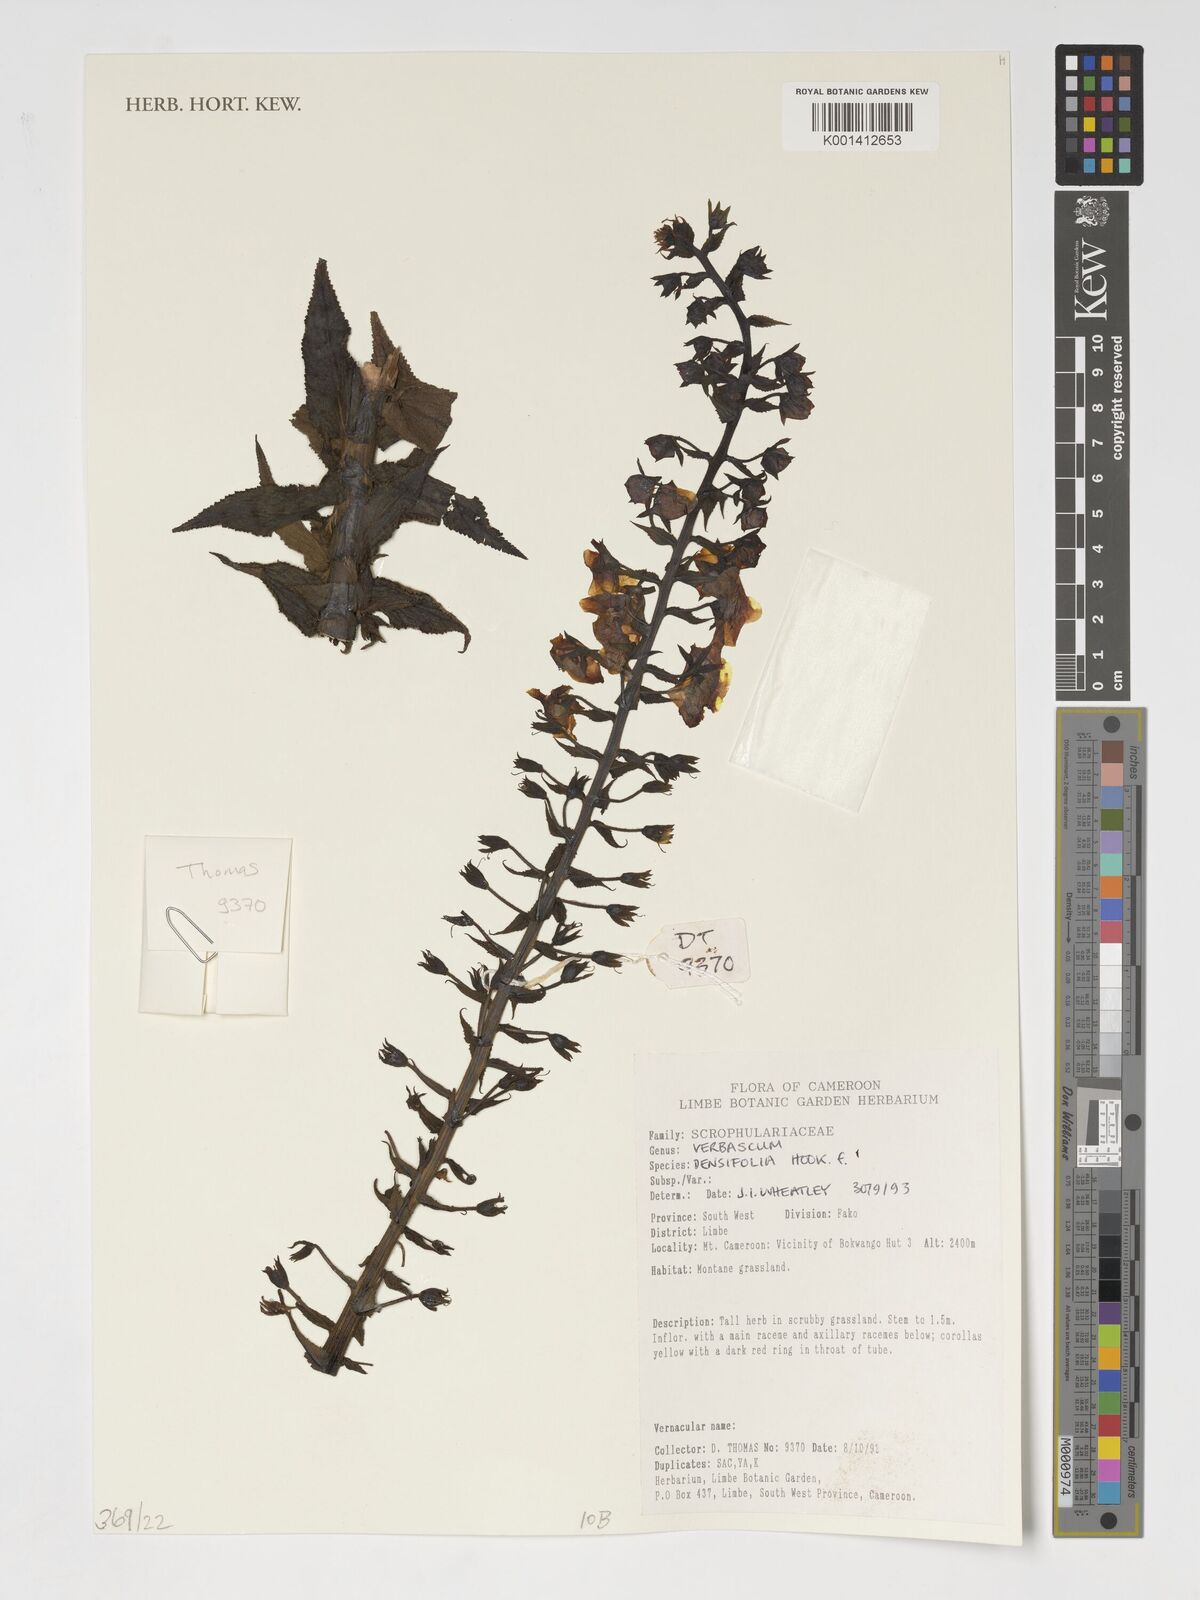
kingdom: Plantae
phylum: Tracheophyta
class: Magnoliopsida
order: Lamiales
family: Scrophulariaceae
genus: Verbascum
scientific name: Verbascum
